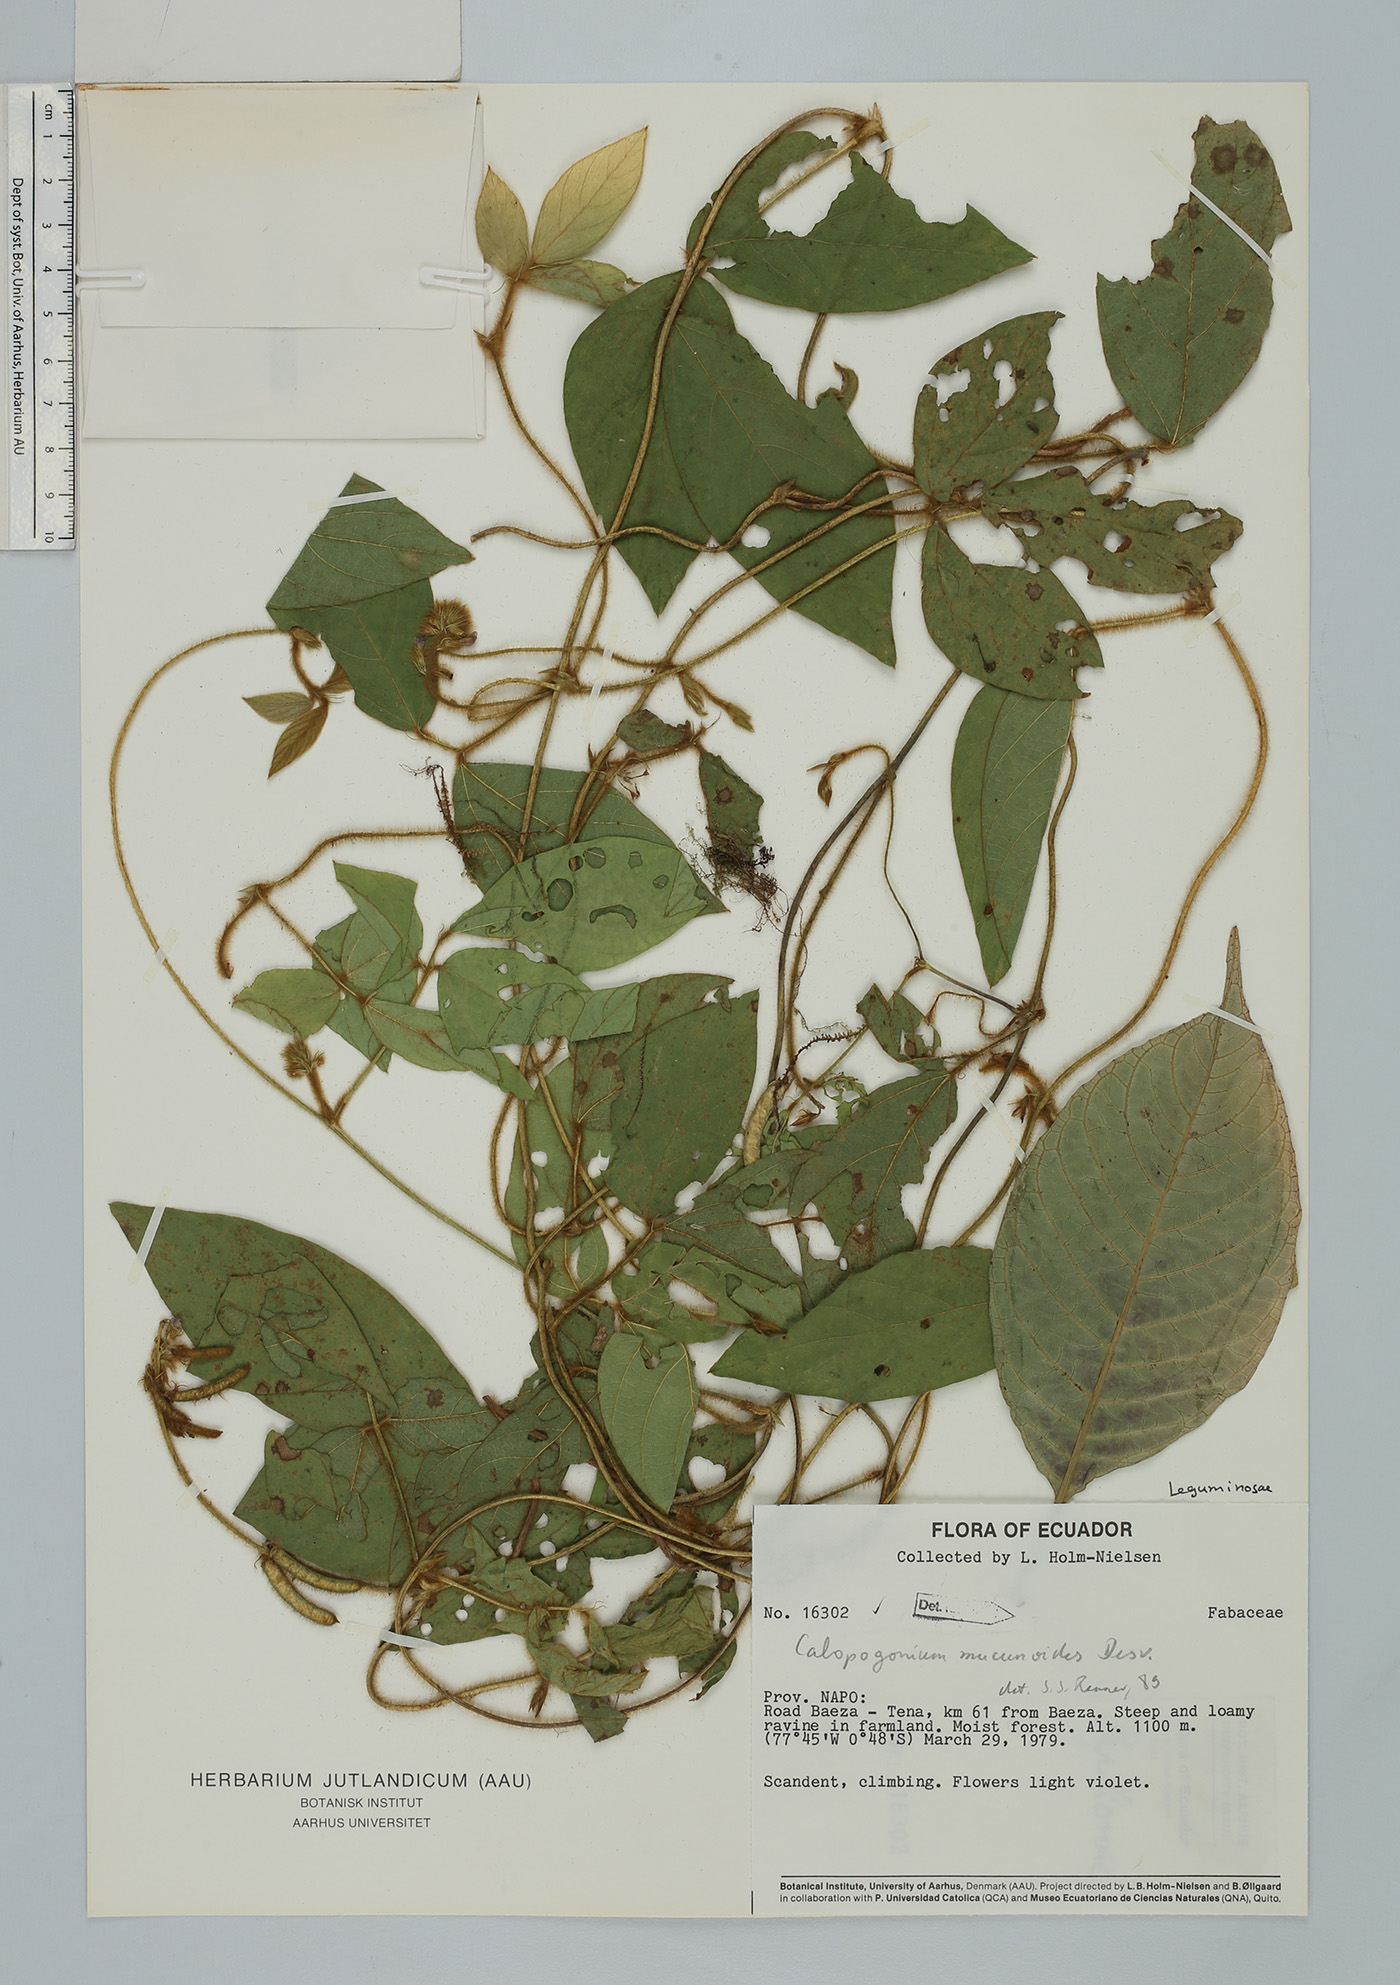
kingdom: Plantae
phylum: Tracheophyta
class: Magnoliopsida
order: Fabales
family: Fabaceae
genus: Calopogonium
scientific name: Calopogonium mucunoides
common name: Calopo
